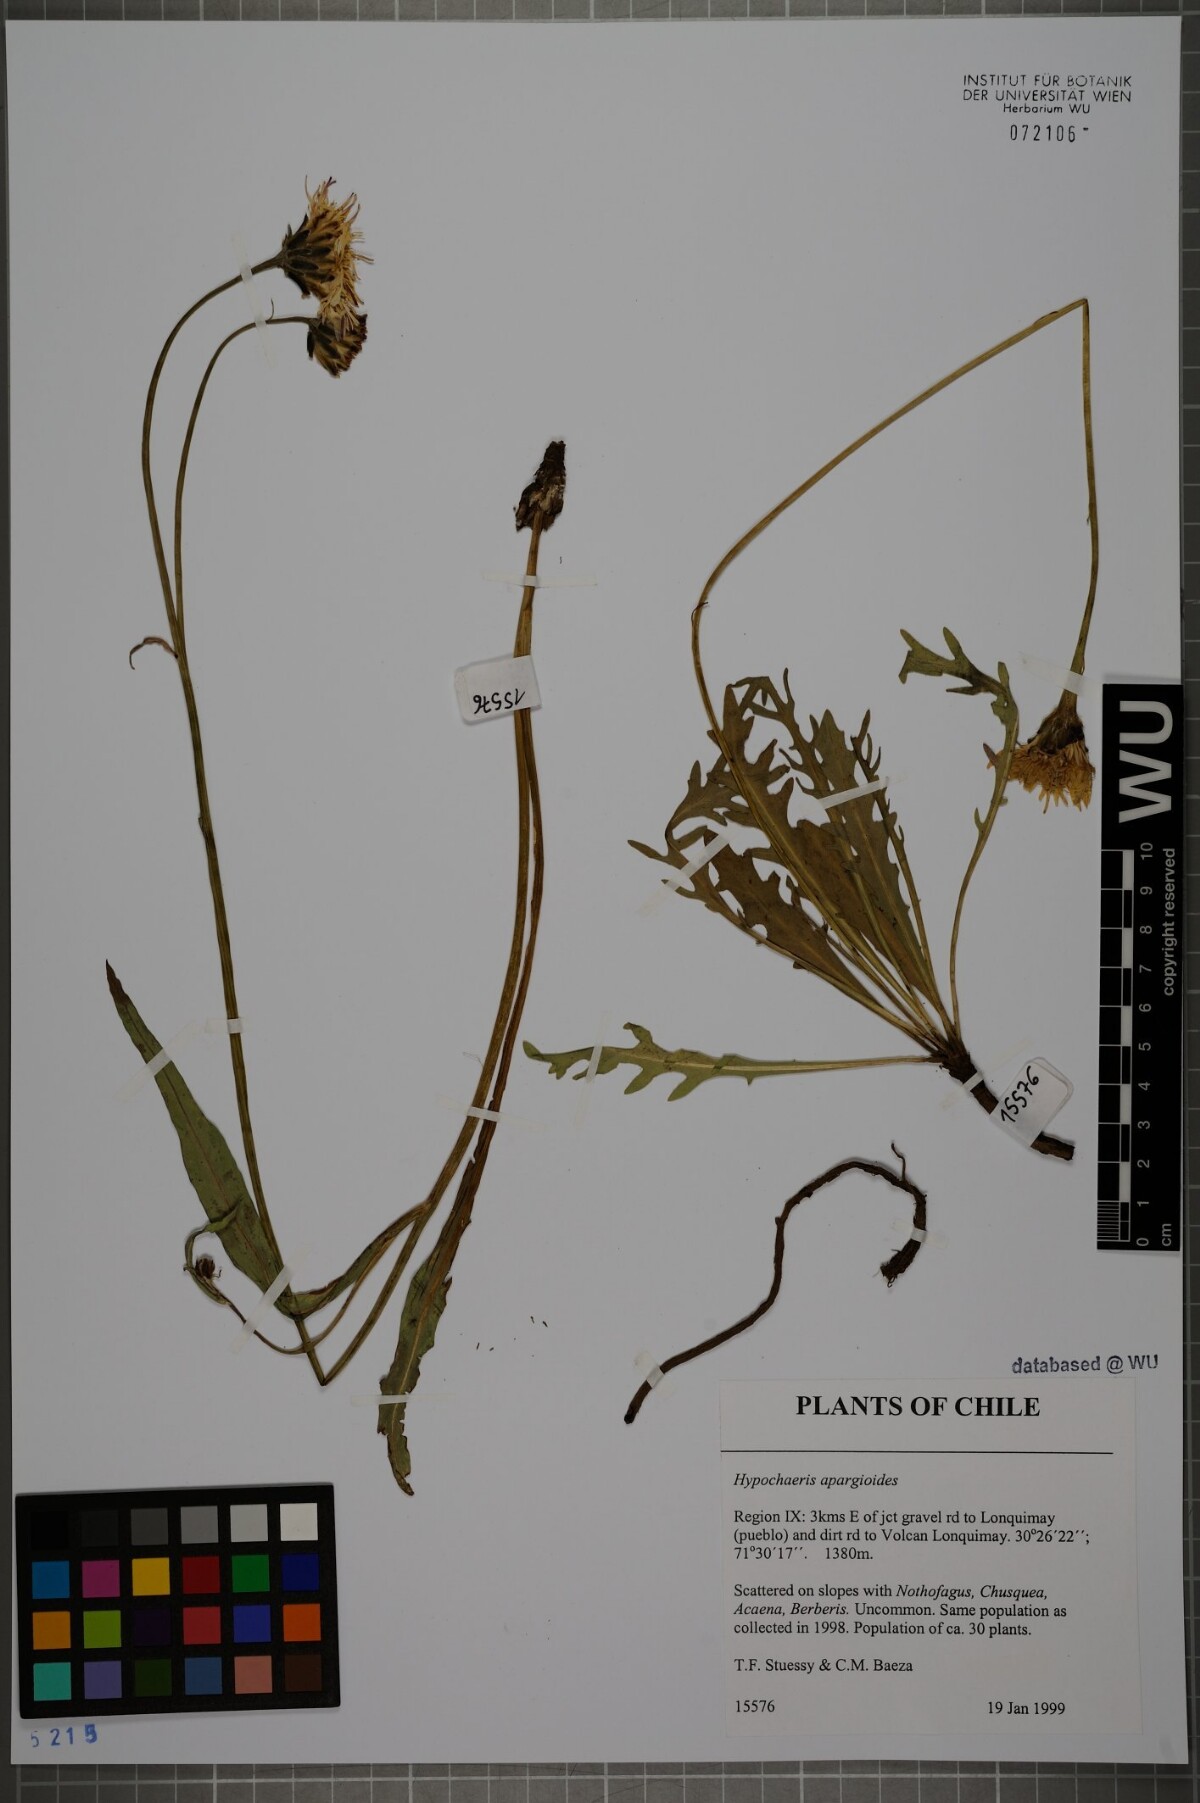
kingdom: Plantae
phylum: Tracheophyta
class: Magnoliopsida
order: Asterales
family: Asteraceae
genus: Hypochaeris
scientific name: Hypochaeris apargioides
